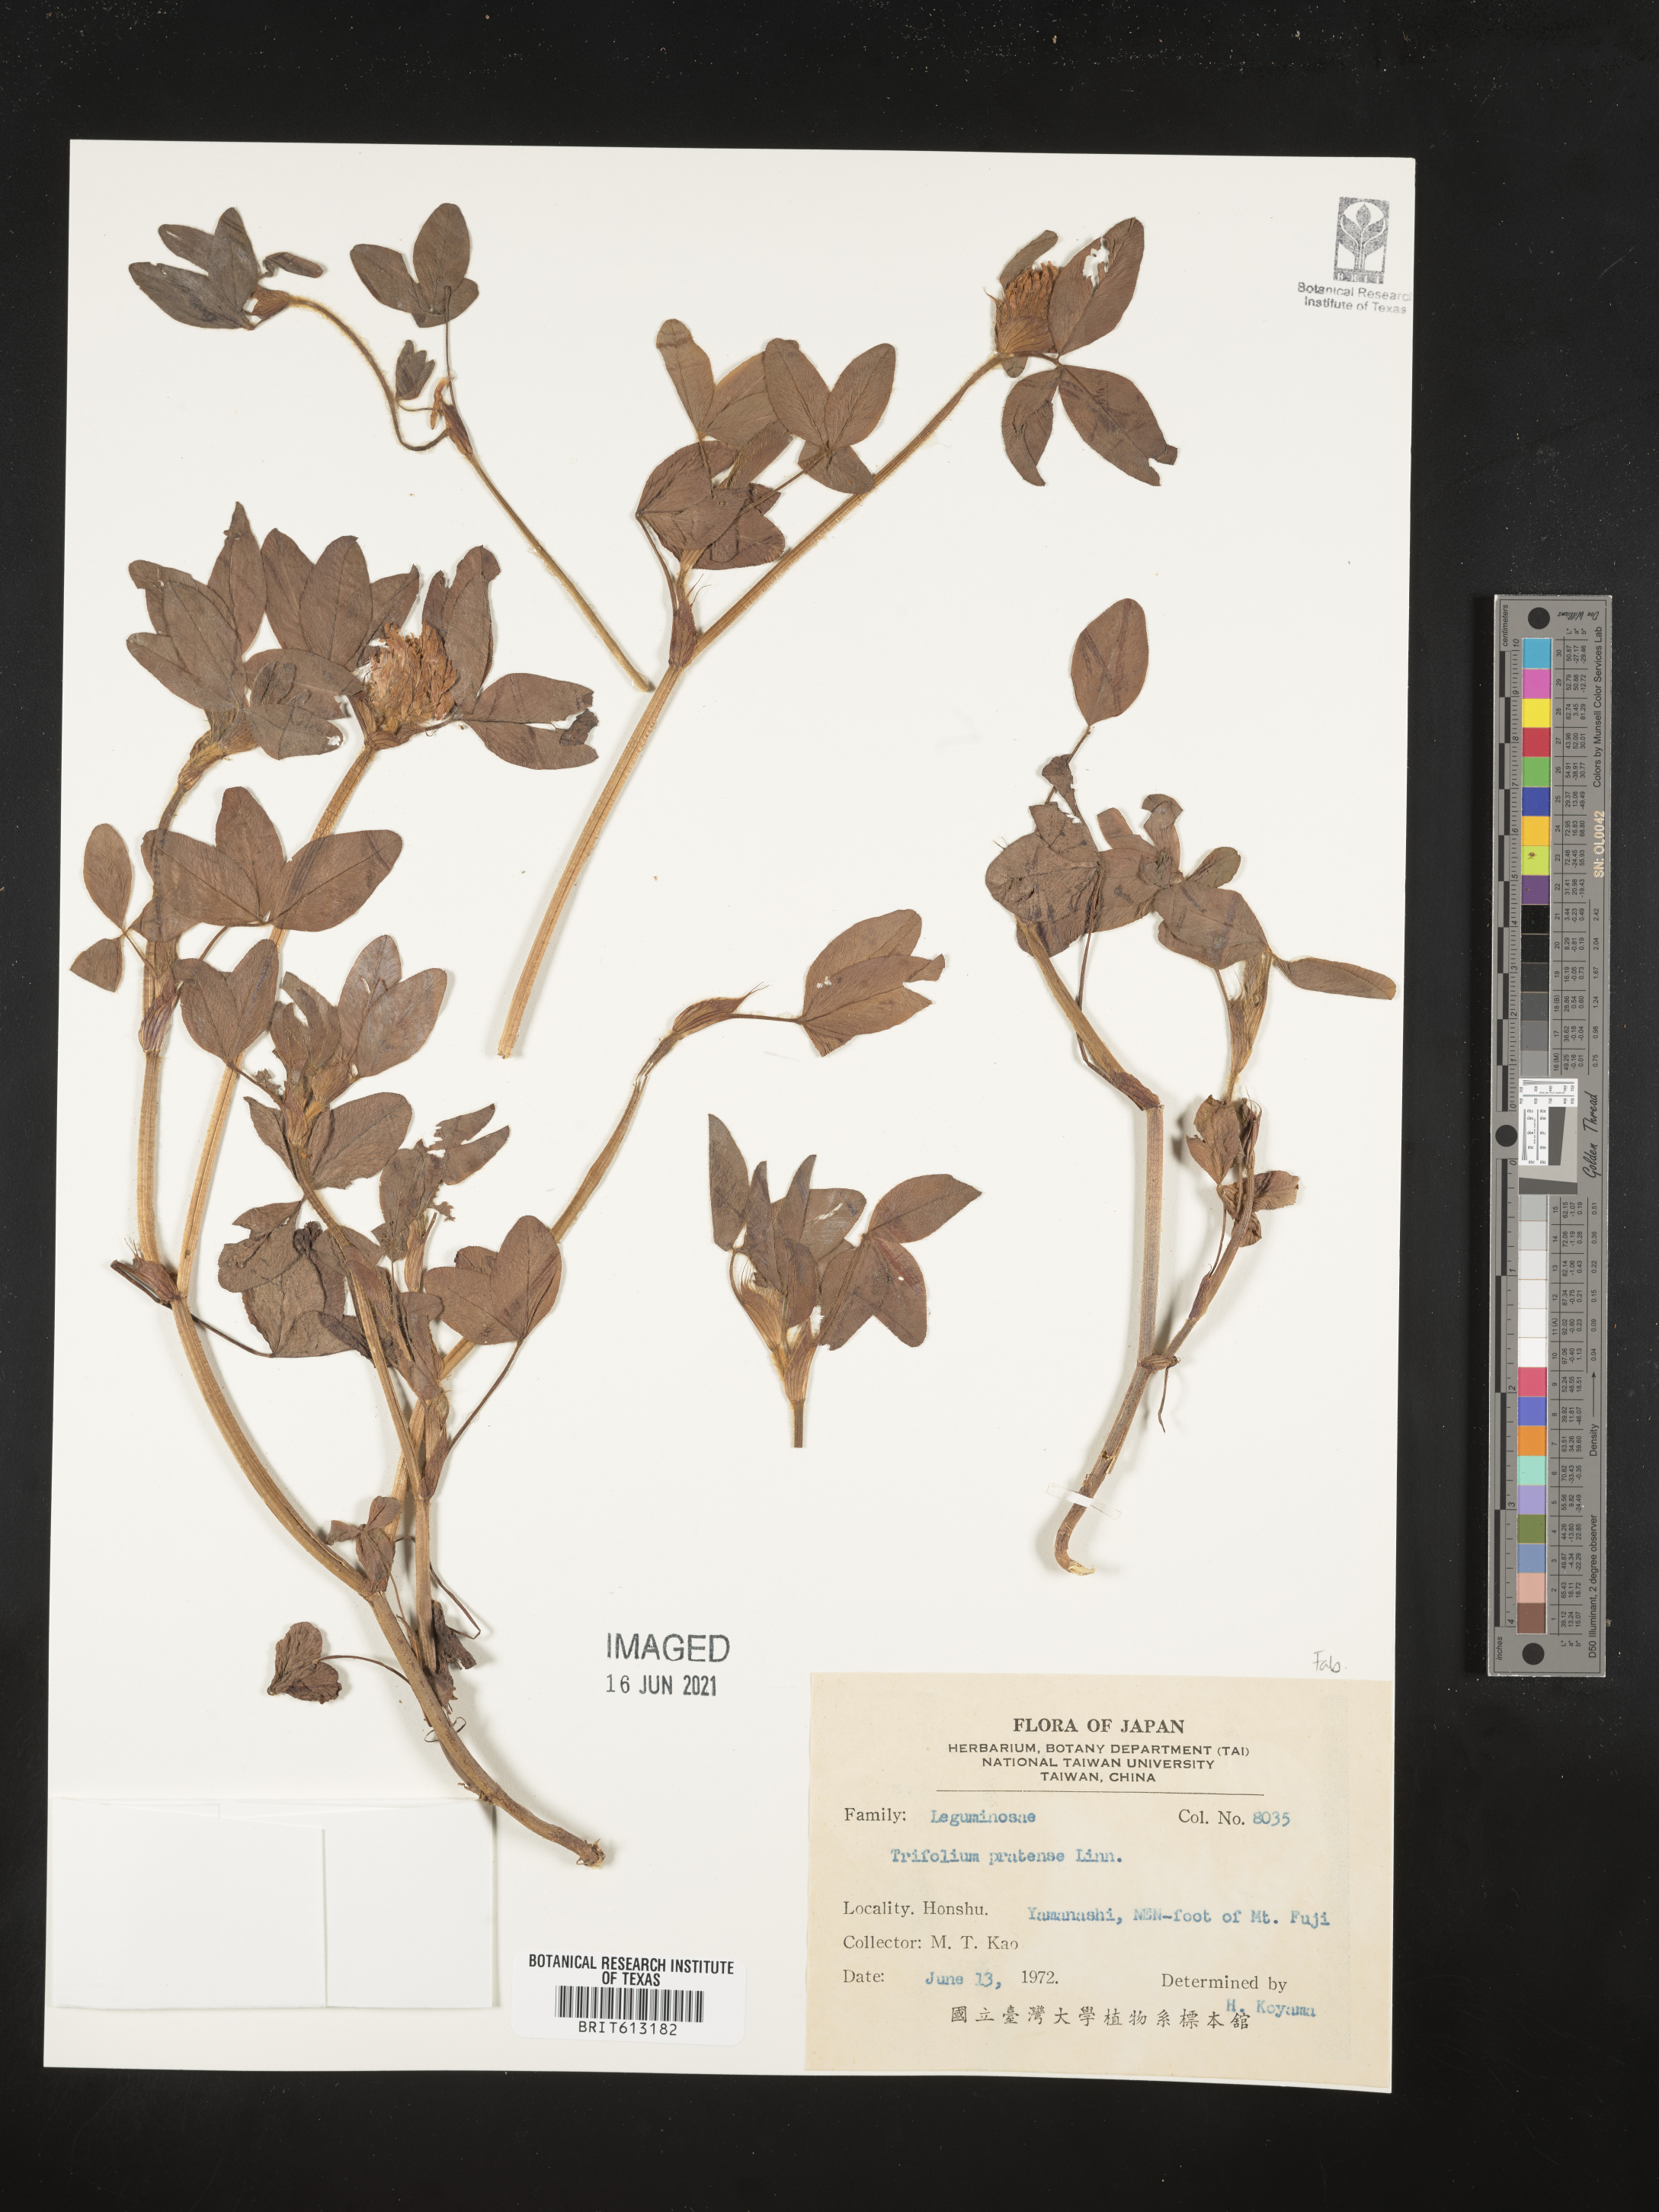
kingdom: Plantae
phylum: Tracheophyta
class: Magnoliopsida
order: Fabales
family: Fabaceae
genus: Trifolium
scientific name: Trifolium pratense
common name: Red clover
